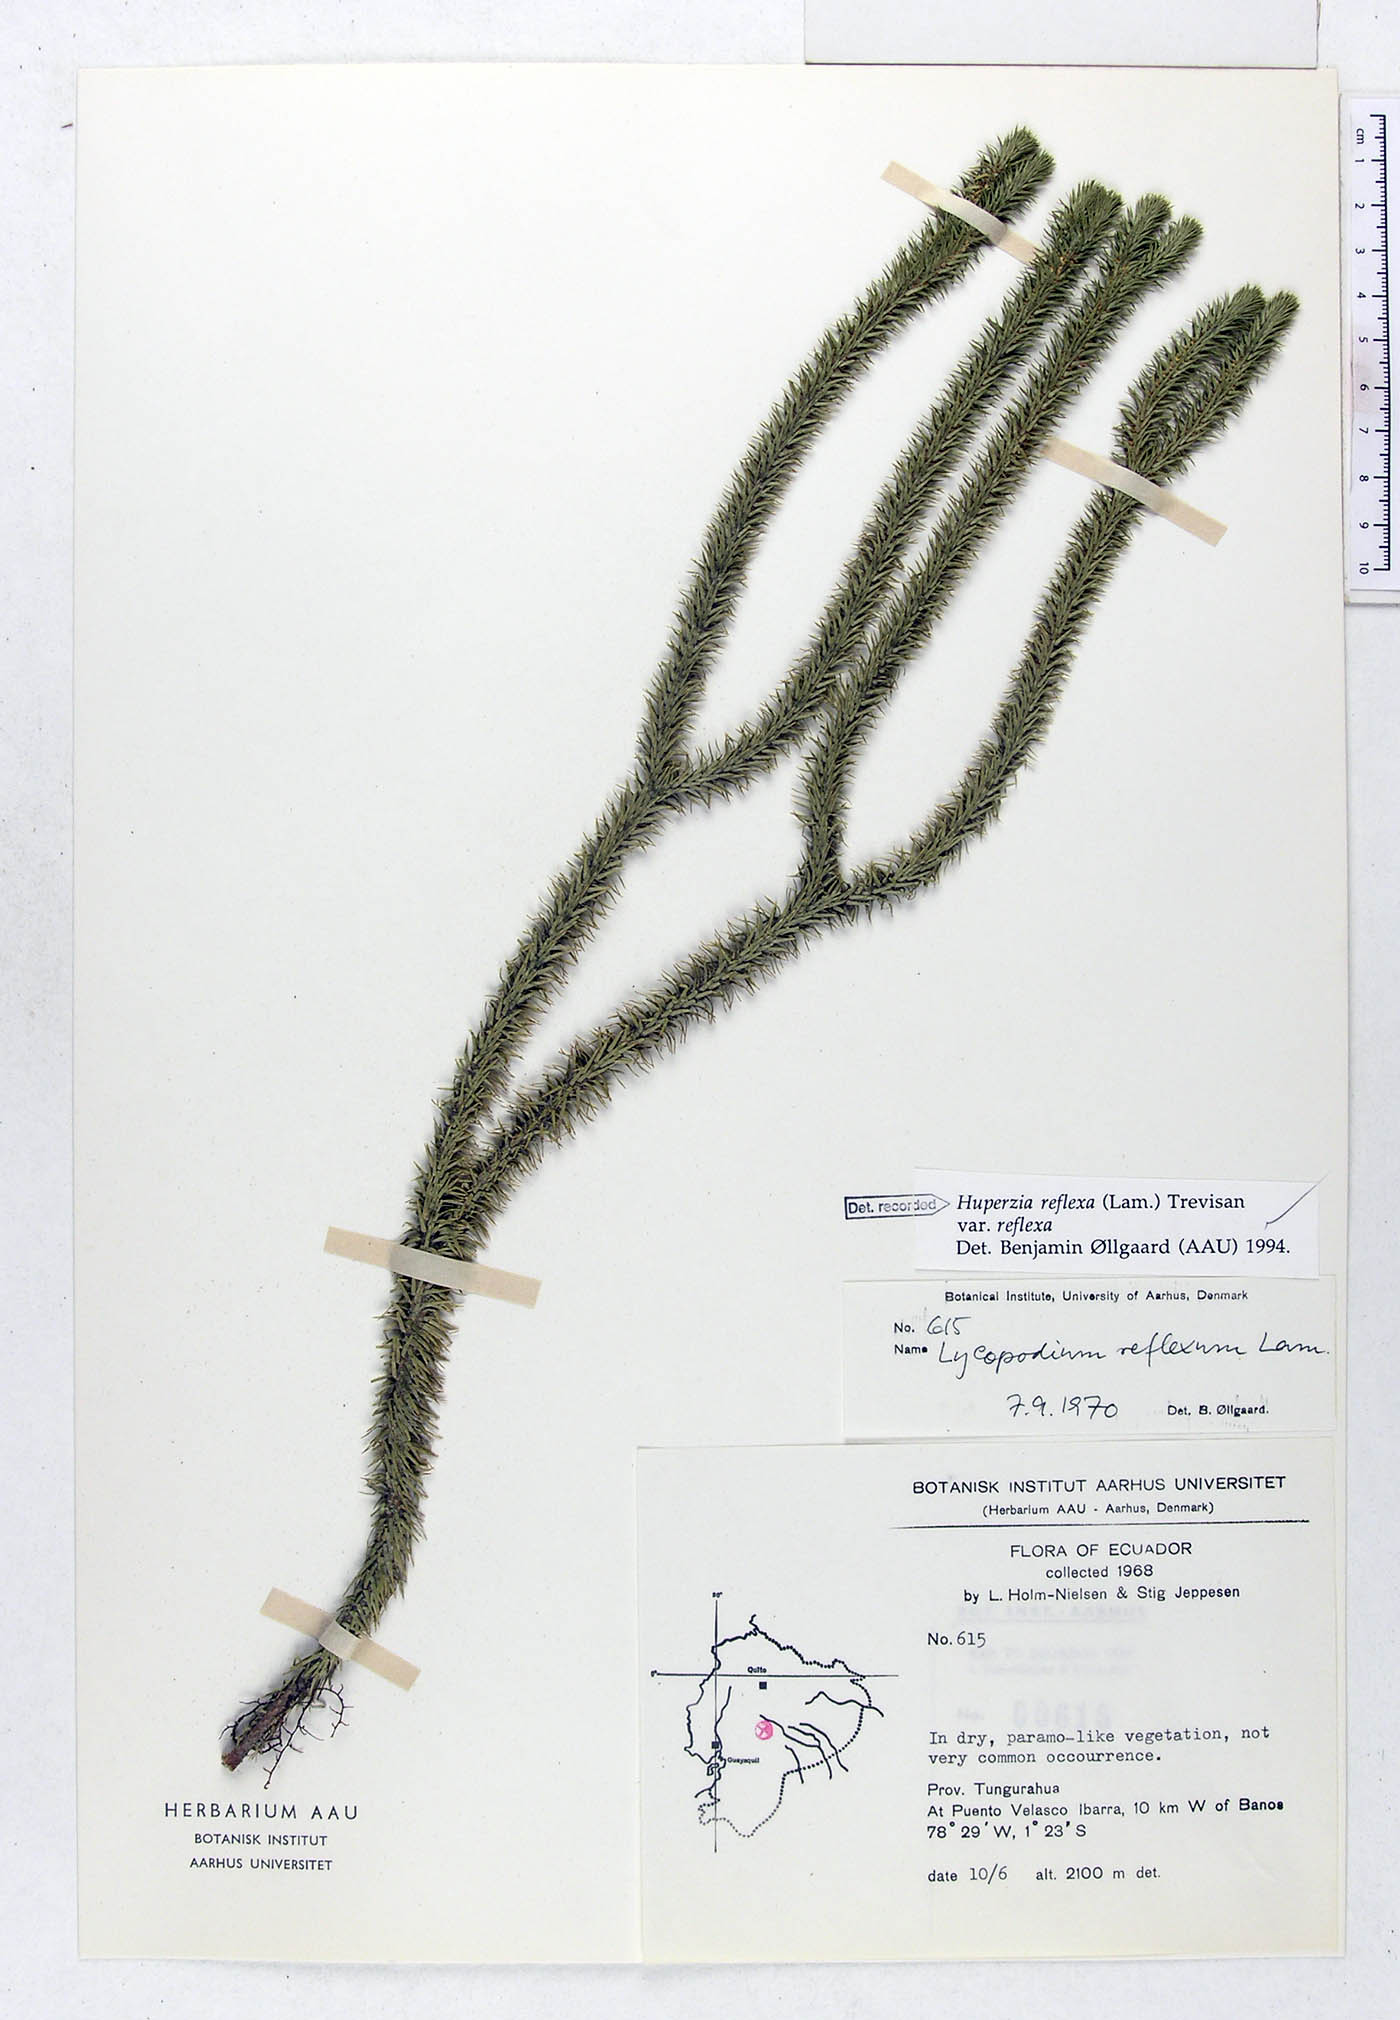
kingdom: Plantae
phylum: Tracheophyta
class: Lycopodiopsida
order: Lycopodiales
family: Lycopodiaceae
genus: Phlegmariurus
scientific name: Phlegmariurus reflexus
